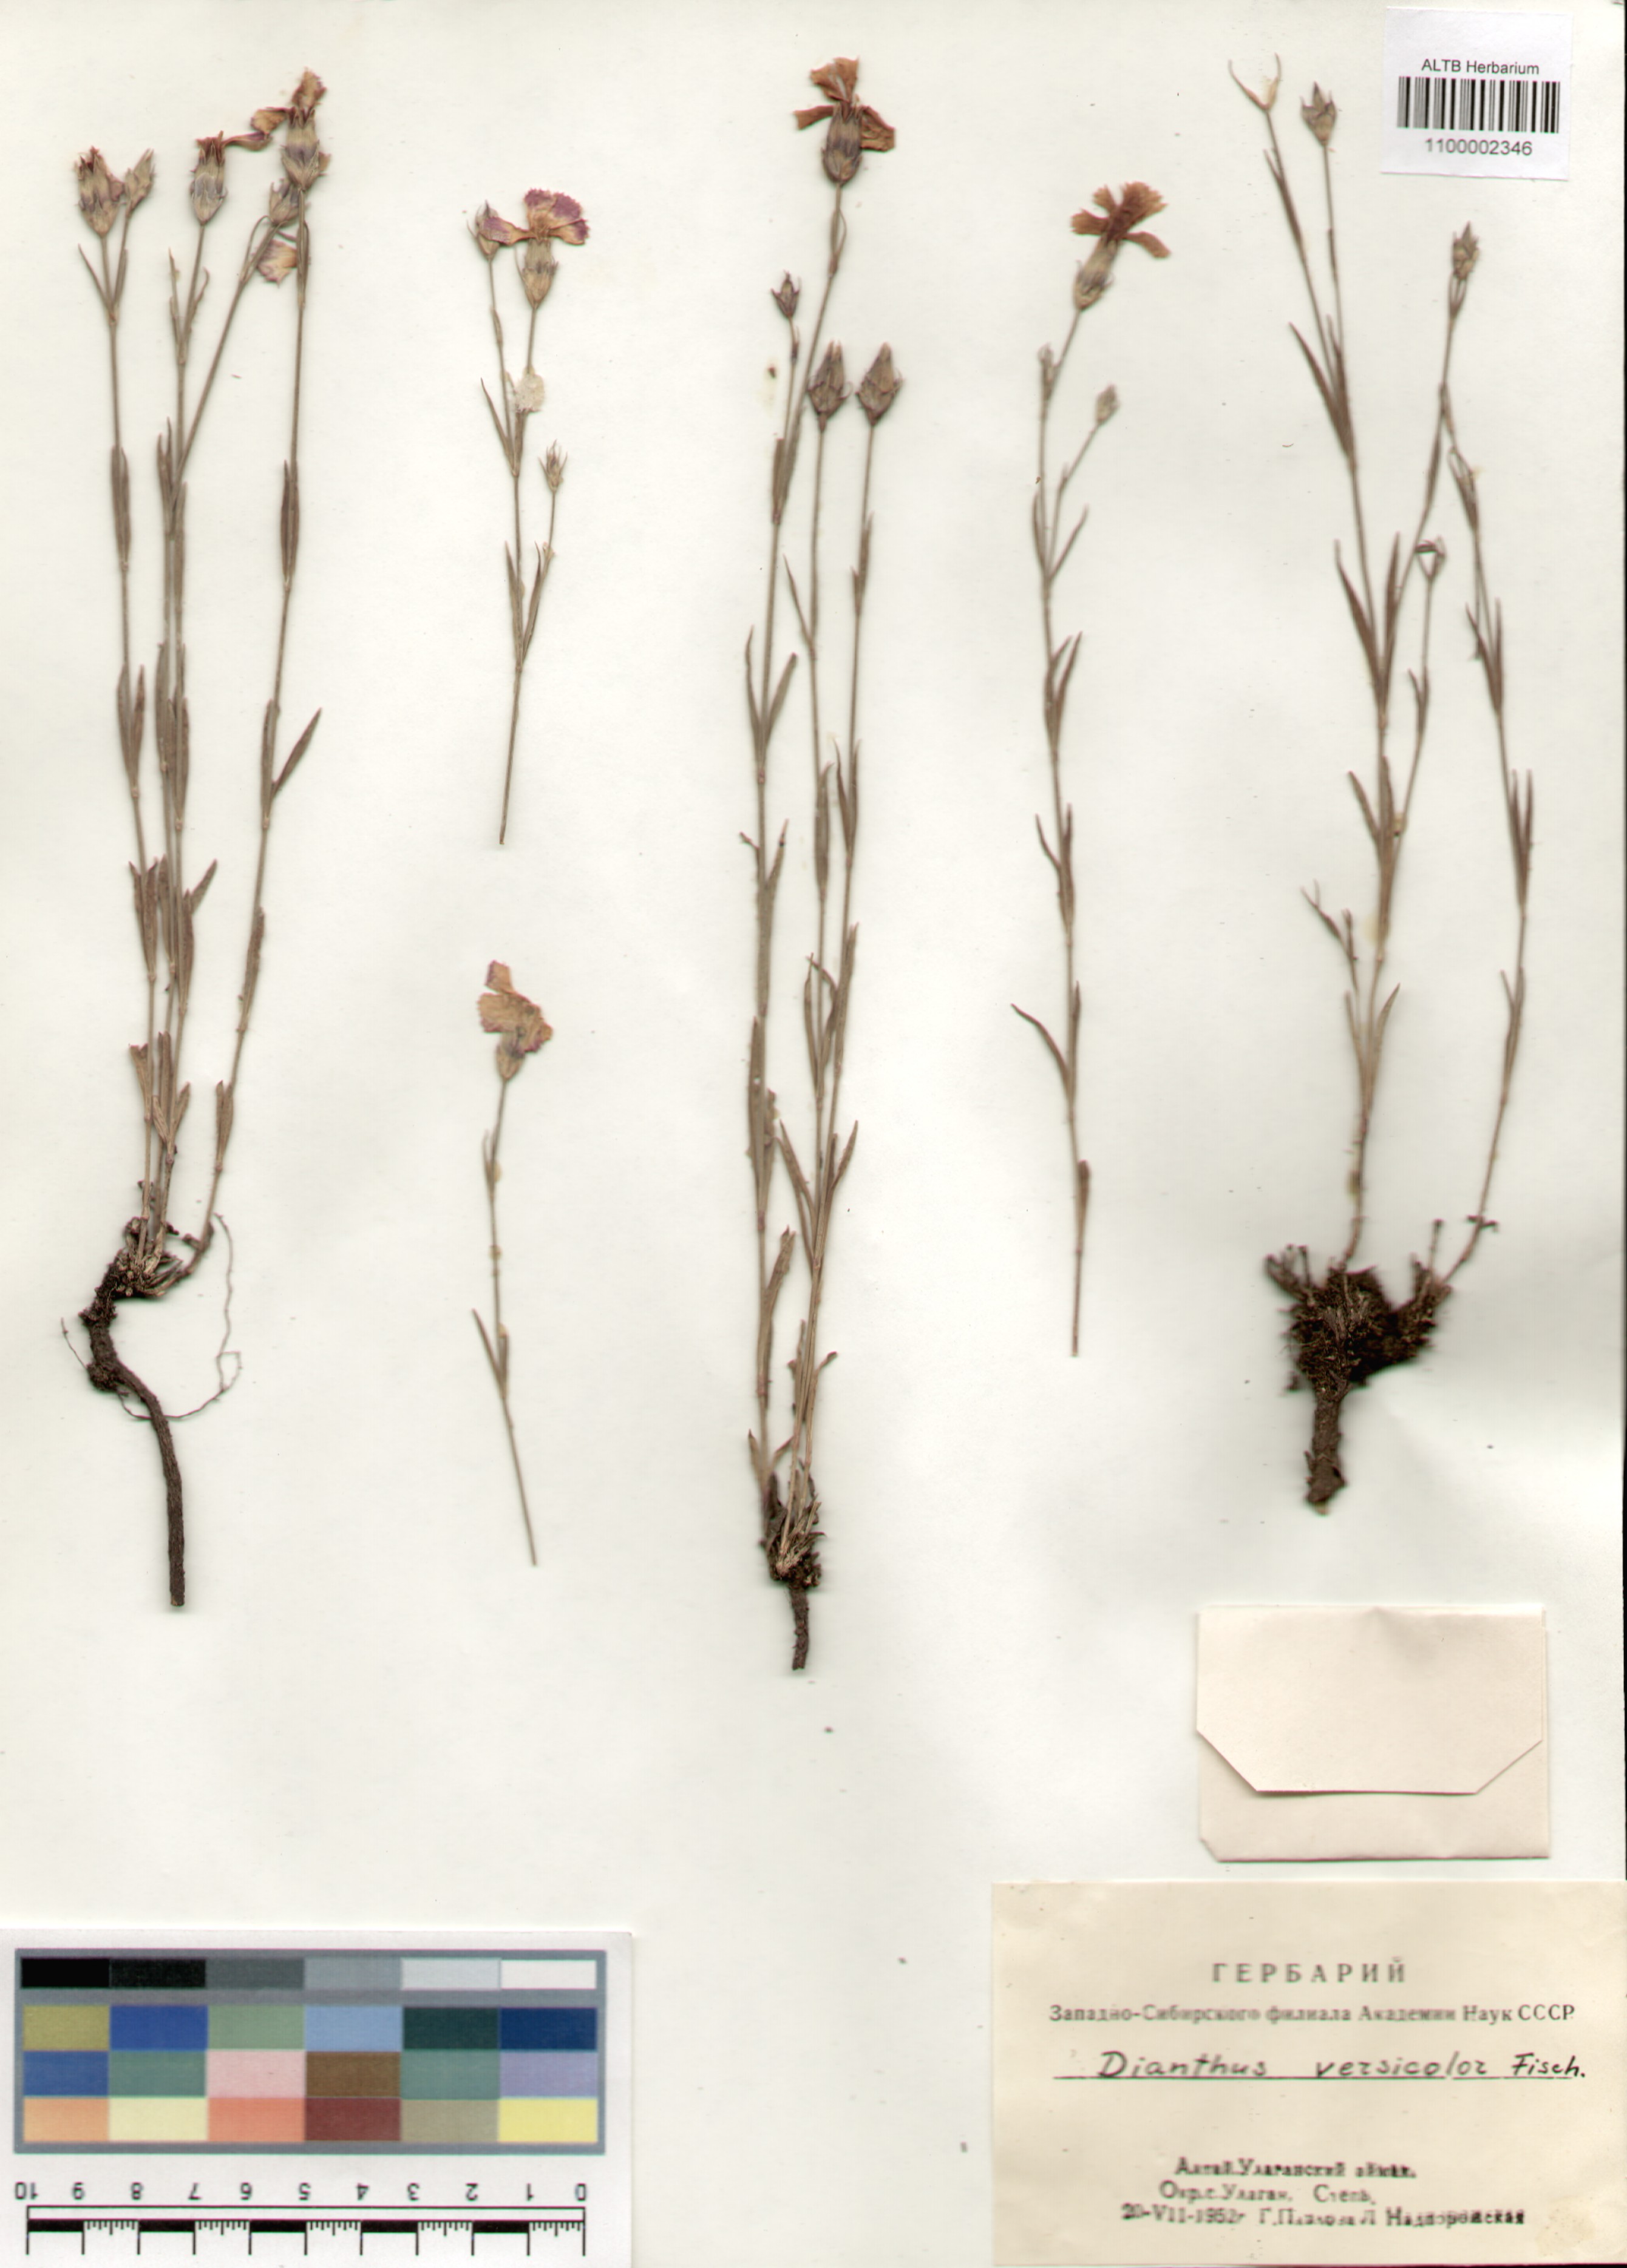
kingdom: Plantae
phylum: Tracheophyta
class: Magnoliopsida
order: Caryophyllales
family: Caryophyllaceae
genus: Dianthus
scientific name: Dianthus chinensis
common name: Rainbow pink
